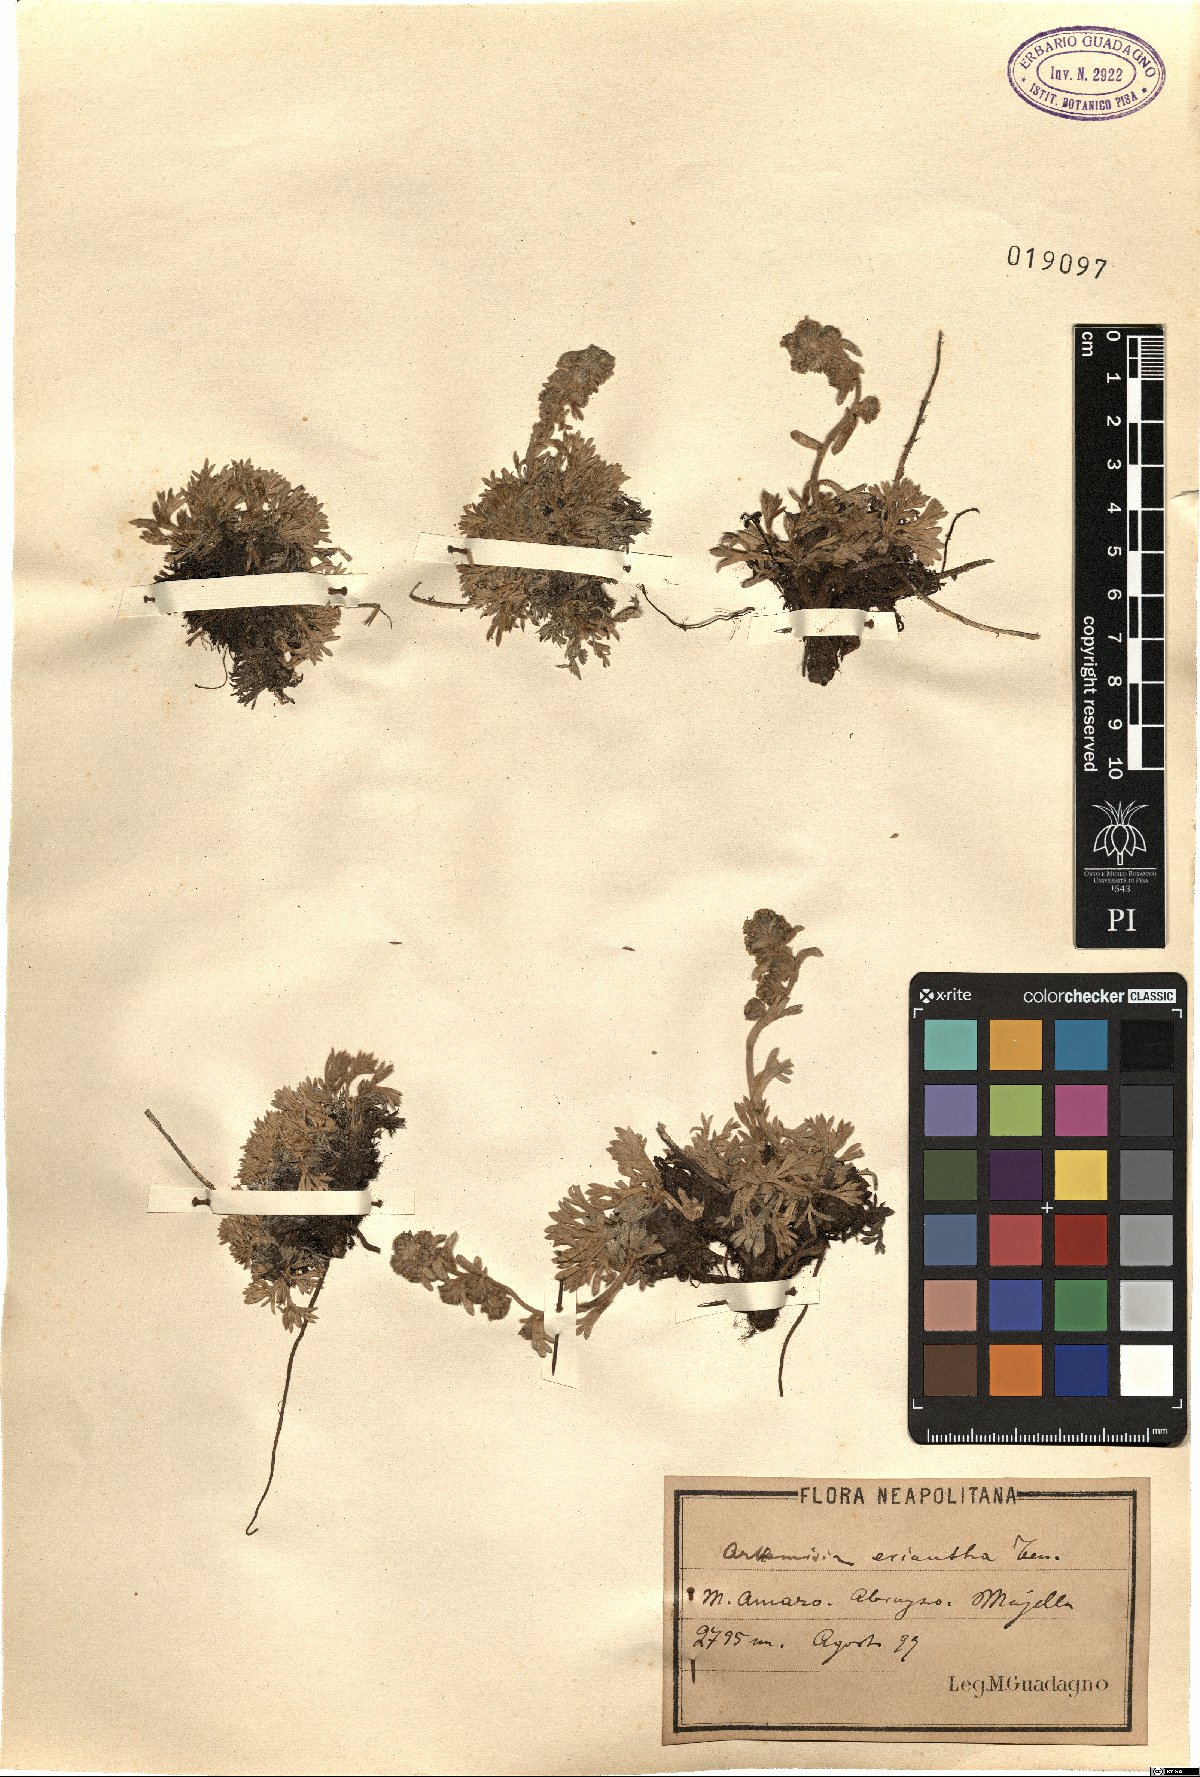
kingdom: Plantae
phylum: Tracheophyta
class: Magnoliopsida
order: Asterales
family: Asteraceae
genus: Artemisia
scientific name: Artemisia eriantha
